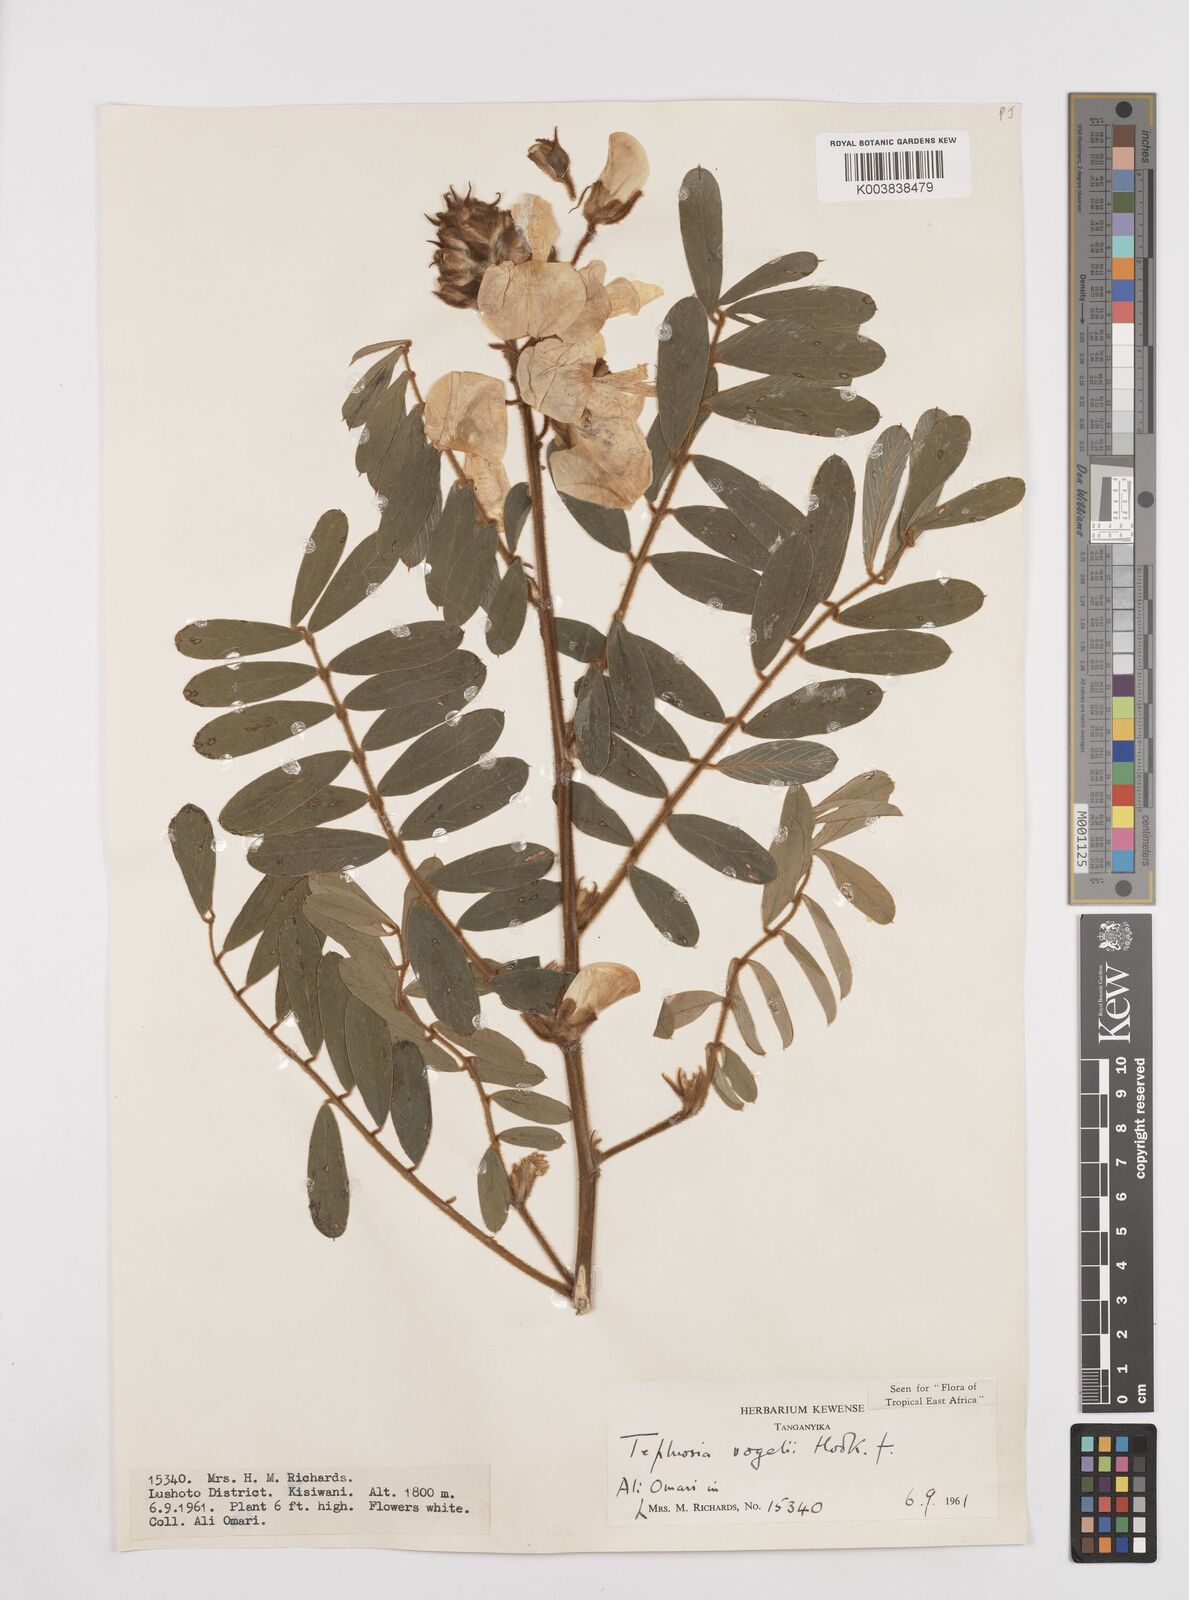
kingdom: Plantae
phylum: Tracheophyta
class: Magnoliopsida
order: Fabales
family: Fabaceae
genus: Tephrosia
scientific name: Tephrosia vogelii
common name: Vogel tephrosia
